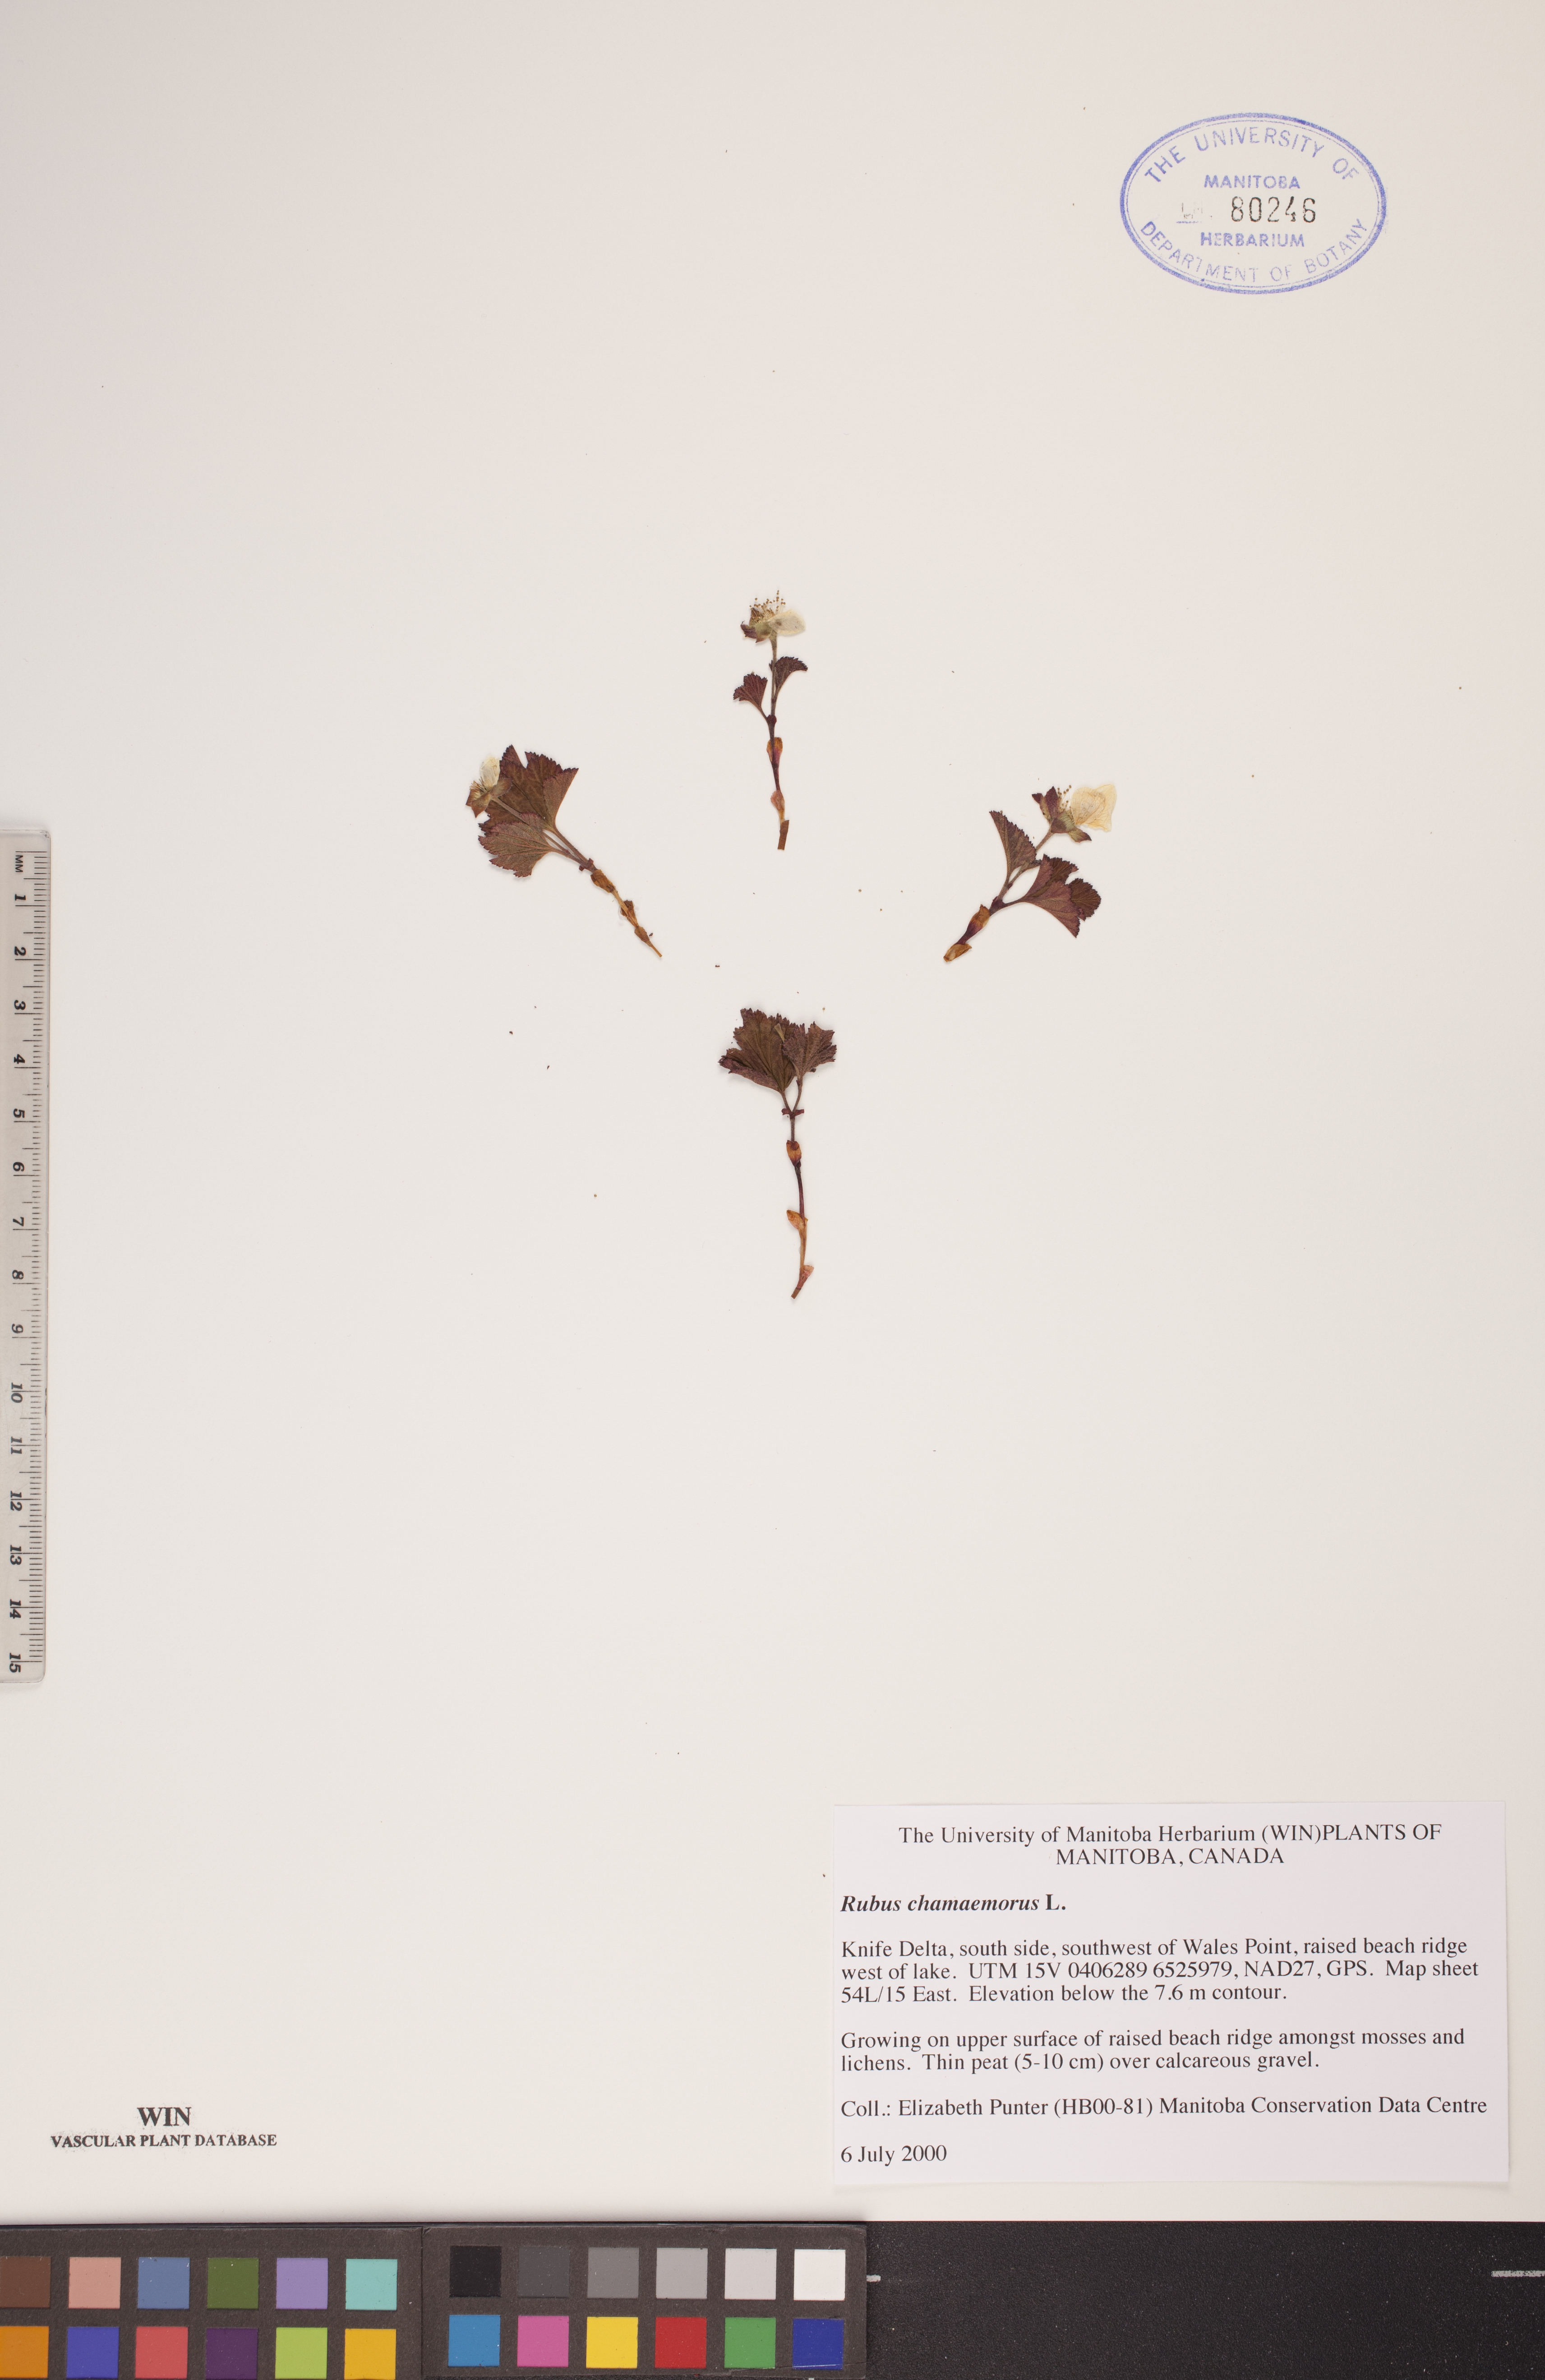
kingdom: Plantae
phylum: Tracheophyta
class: Magnoliopsida
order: Rosales
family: Rosaceae
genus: Rubus
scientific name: Rubus chamaemorus
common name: Cloudberry
